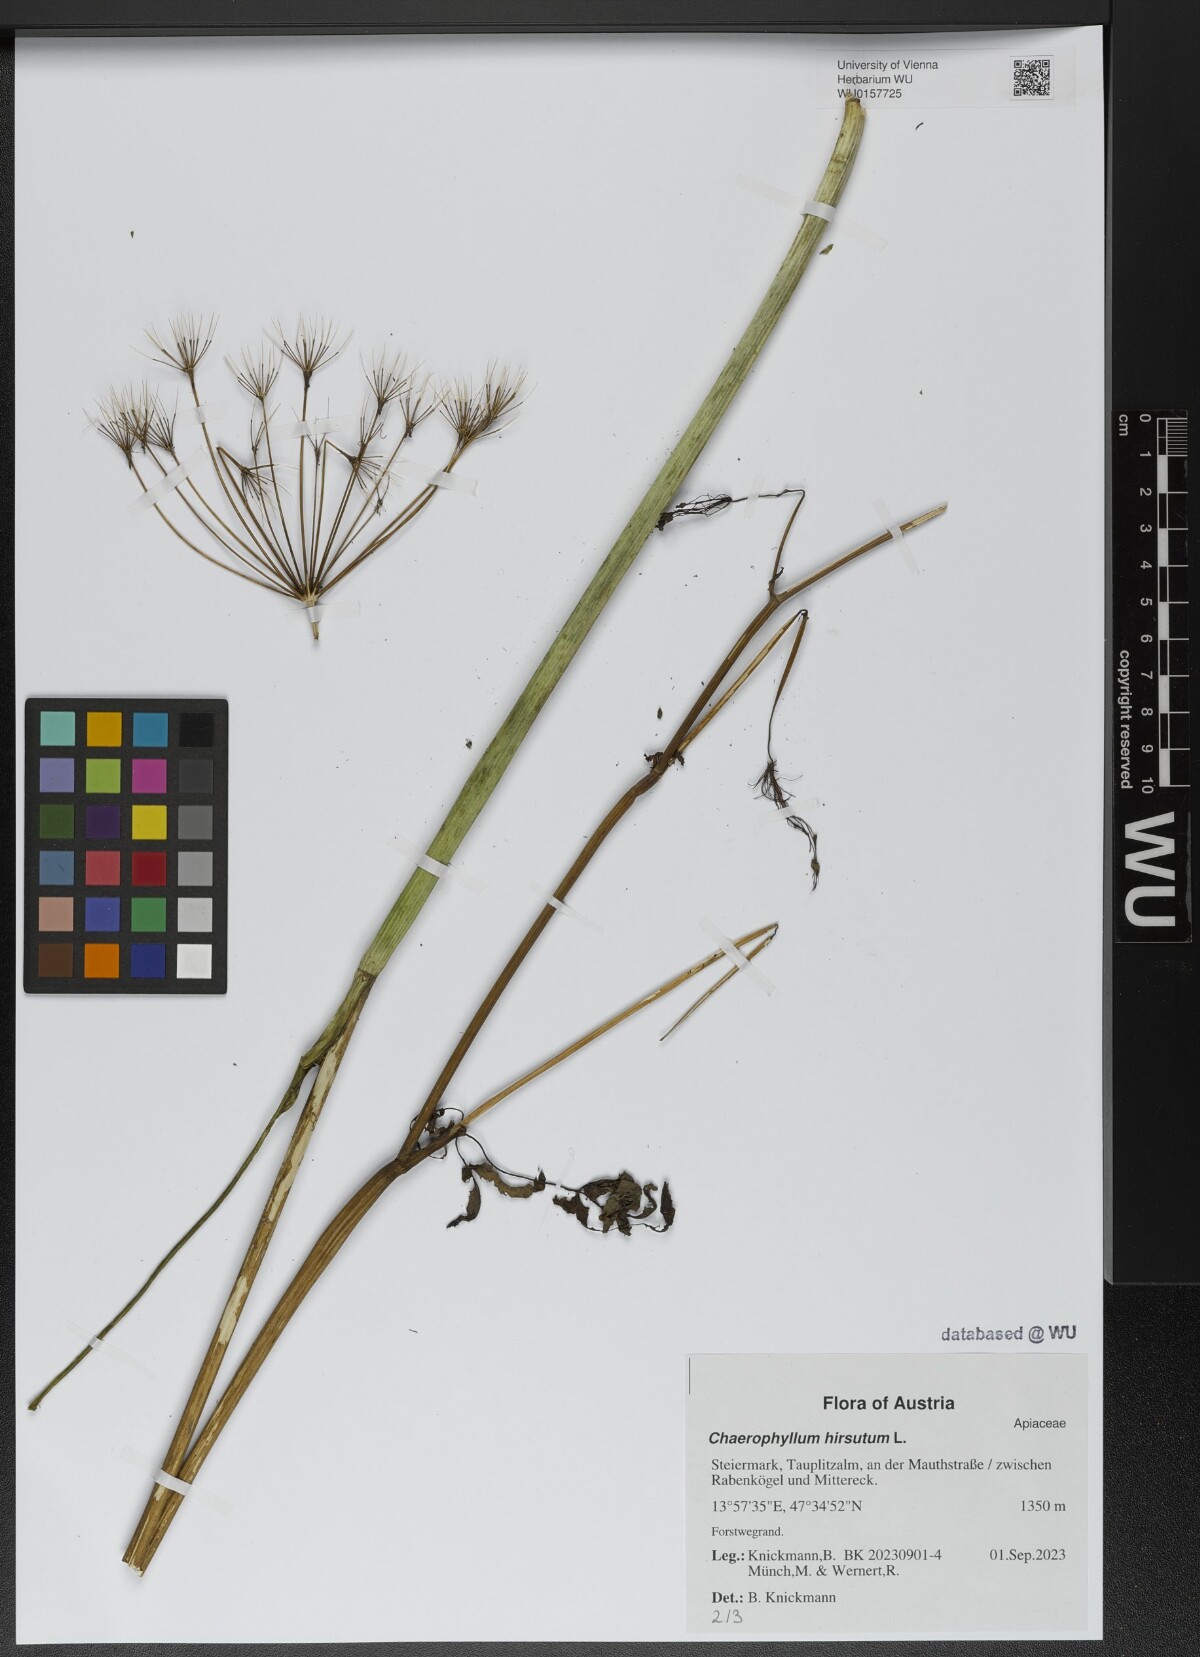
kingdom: Plantae
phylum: Tracheophyta
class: Magnoliopsida
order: Apiales
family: Apiaceae
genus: Chaerophyllum
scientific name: Chaerophyllum hirsutum
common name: Hairy chervil
